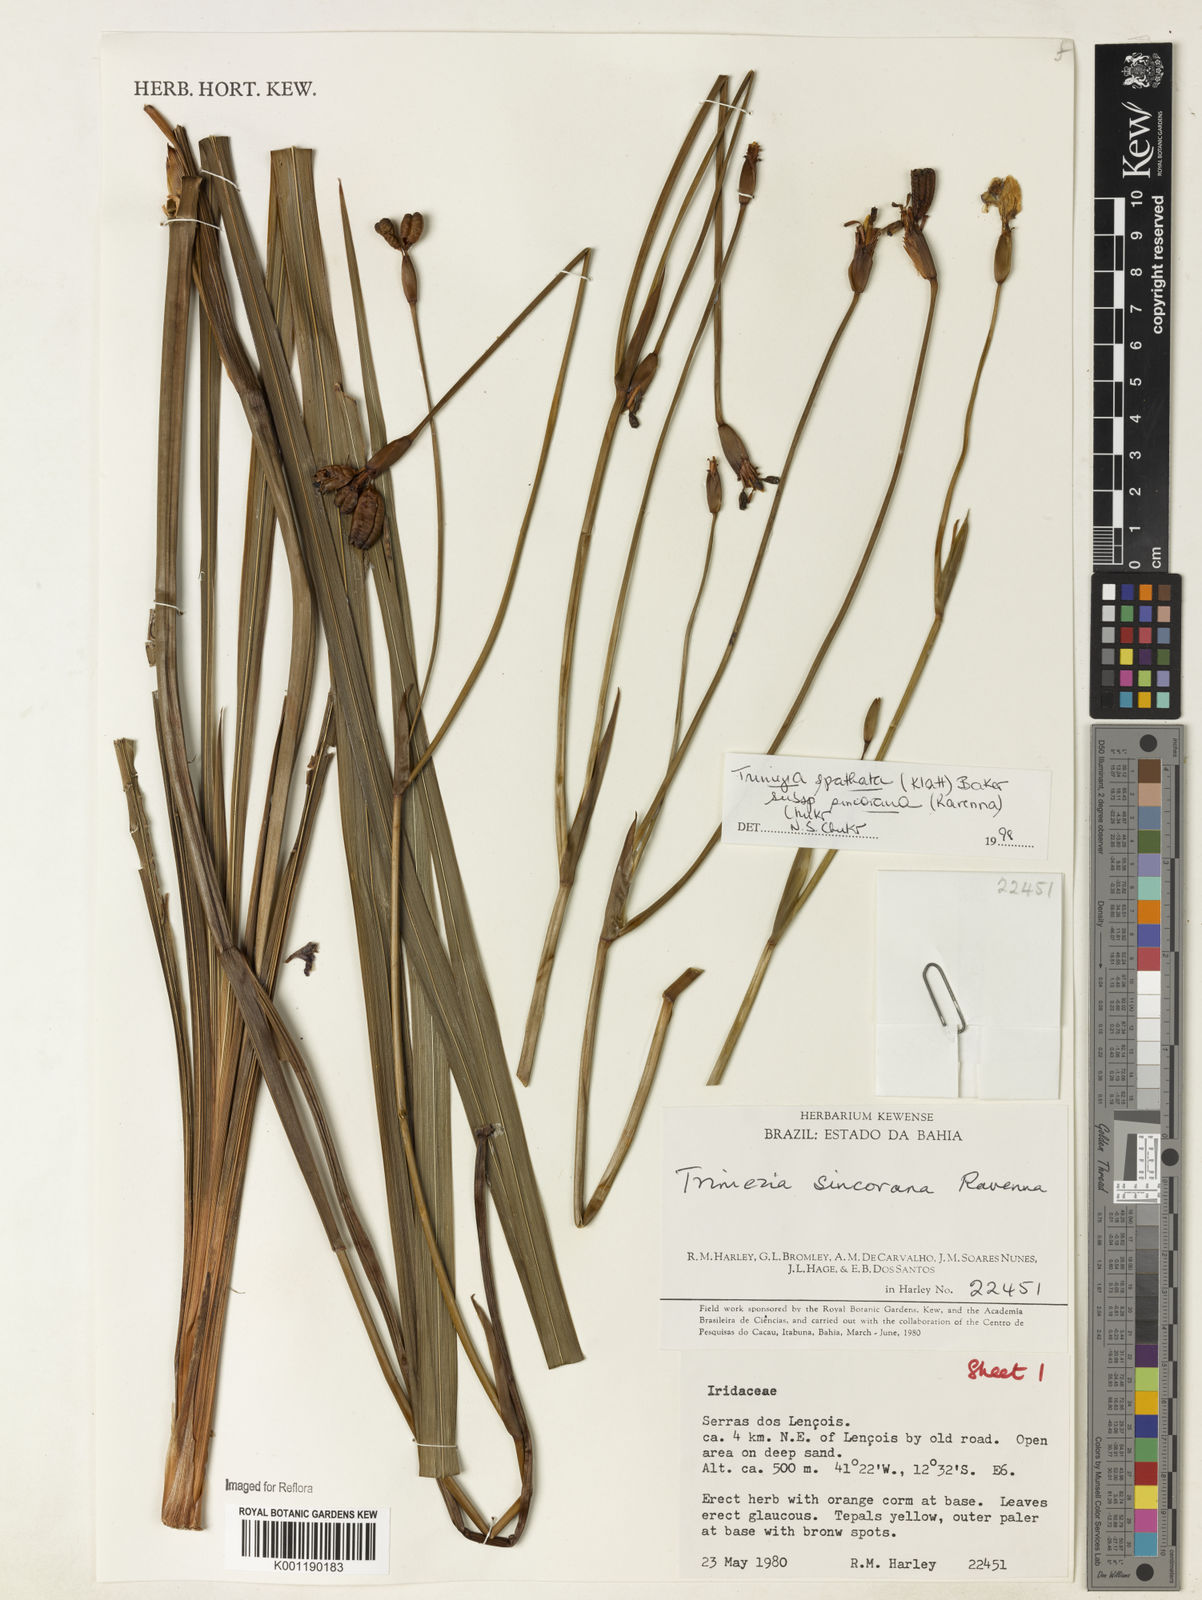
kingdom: Plantae
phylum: Tracheophyta
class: Liliopsida
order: Asparagales
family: Iridaceae
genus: Trimezia
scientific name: Trimezia spathata
